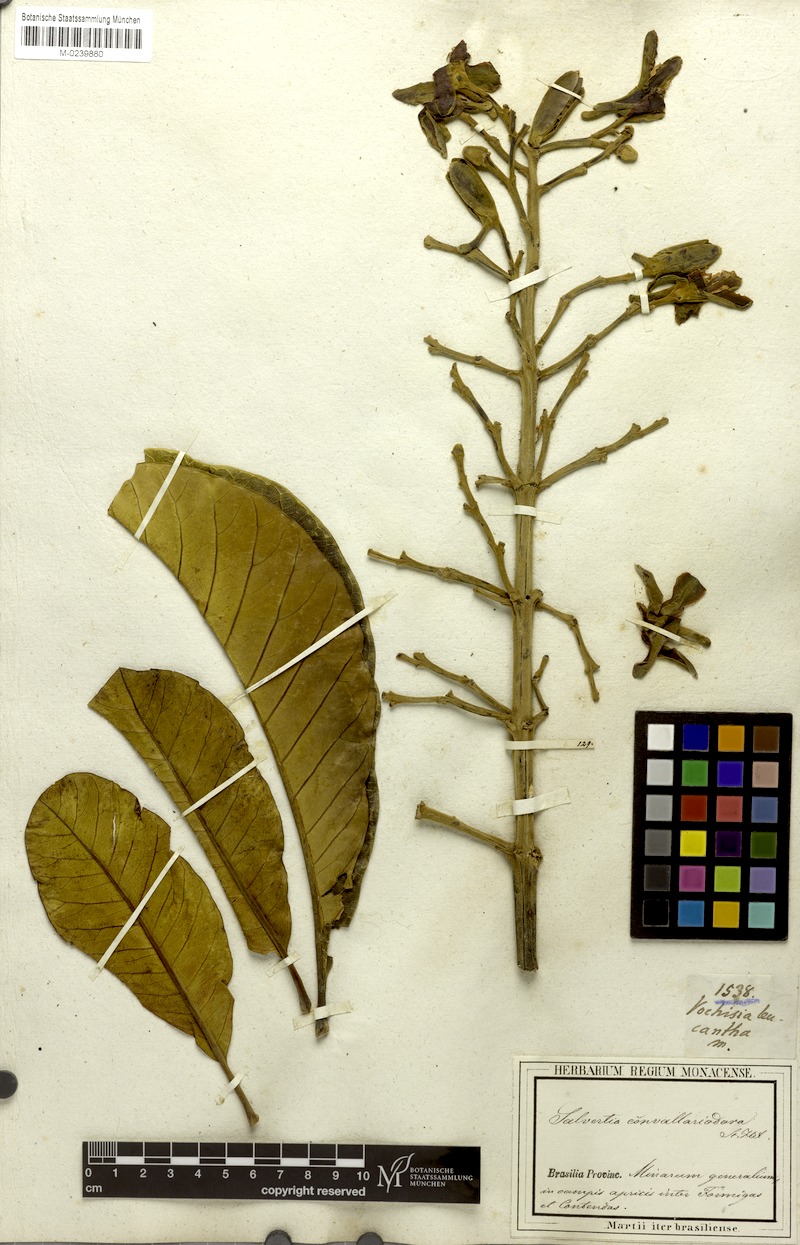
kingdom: Plantae
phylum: Tracheophyta
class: Magnoliopsida
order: Myrtales
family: Vochysiaceae
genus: Salvertia
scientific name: Salvertia convallariodora
